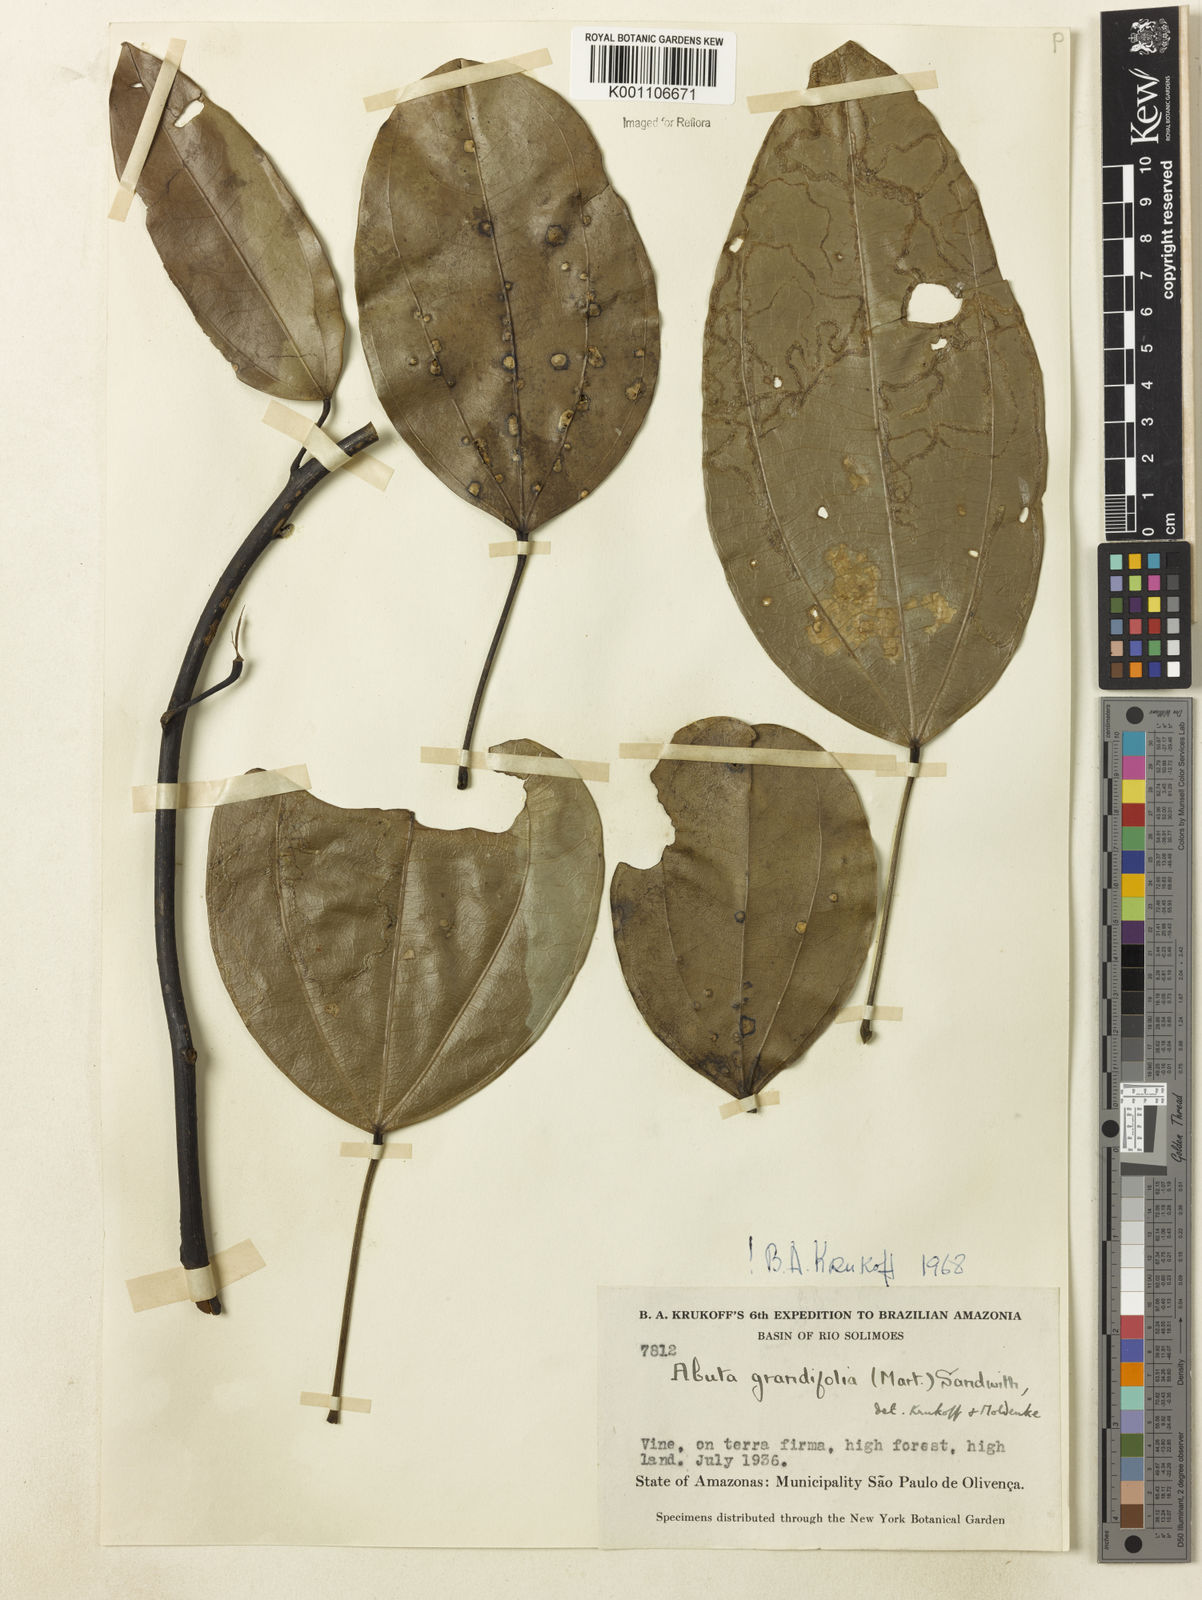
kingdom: Plantae
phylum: Tracheophyta
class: Magnoliopsida
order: Ranunculales
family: Menispermaceae
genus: Abuta
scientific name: Abuta grandifolia
